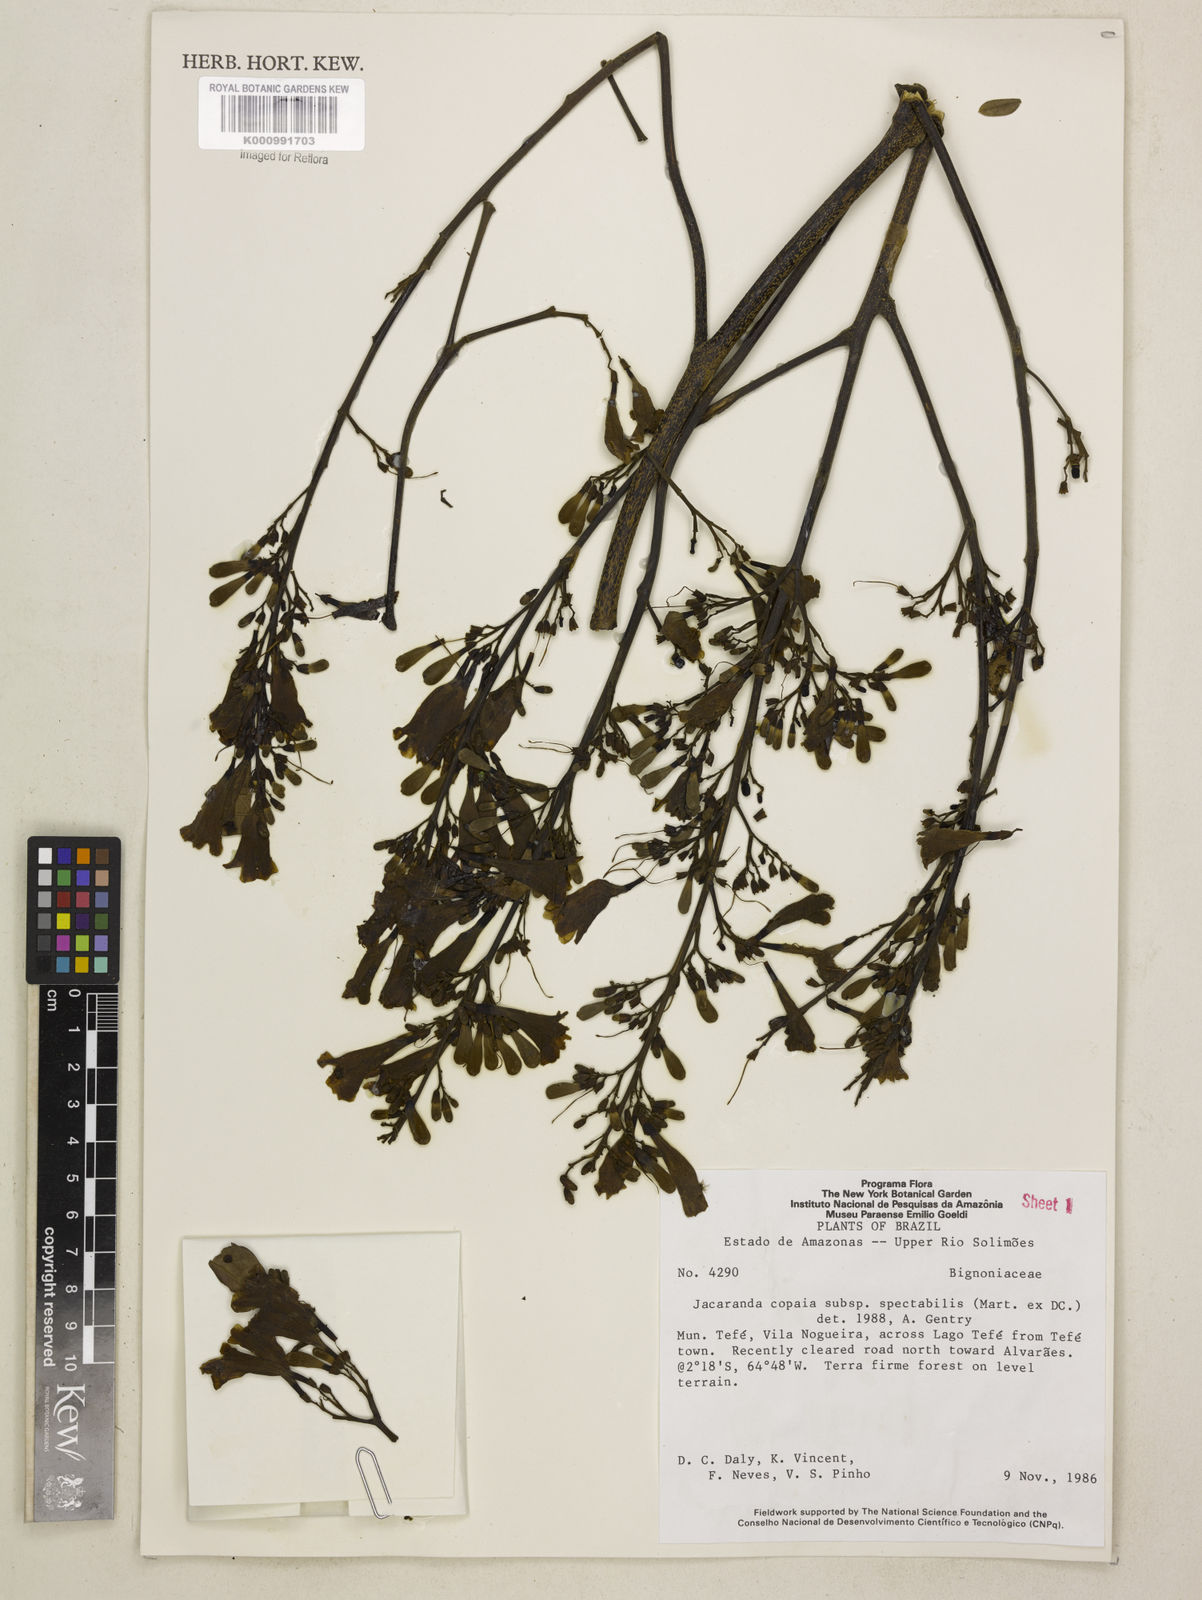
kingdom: Plantae
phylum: Tracheophyta
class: Magnoliopsida
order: Lamiales
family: Bignoniaceae
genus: Jacaranda
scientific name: Jacaranda copaia
